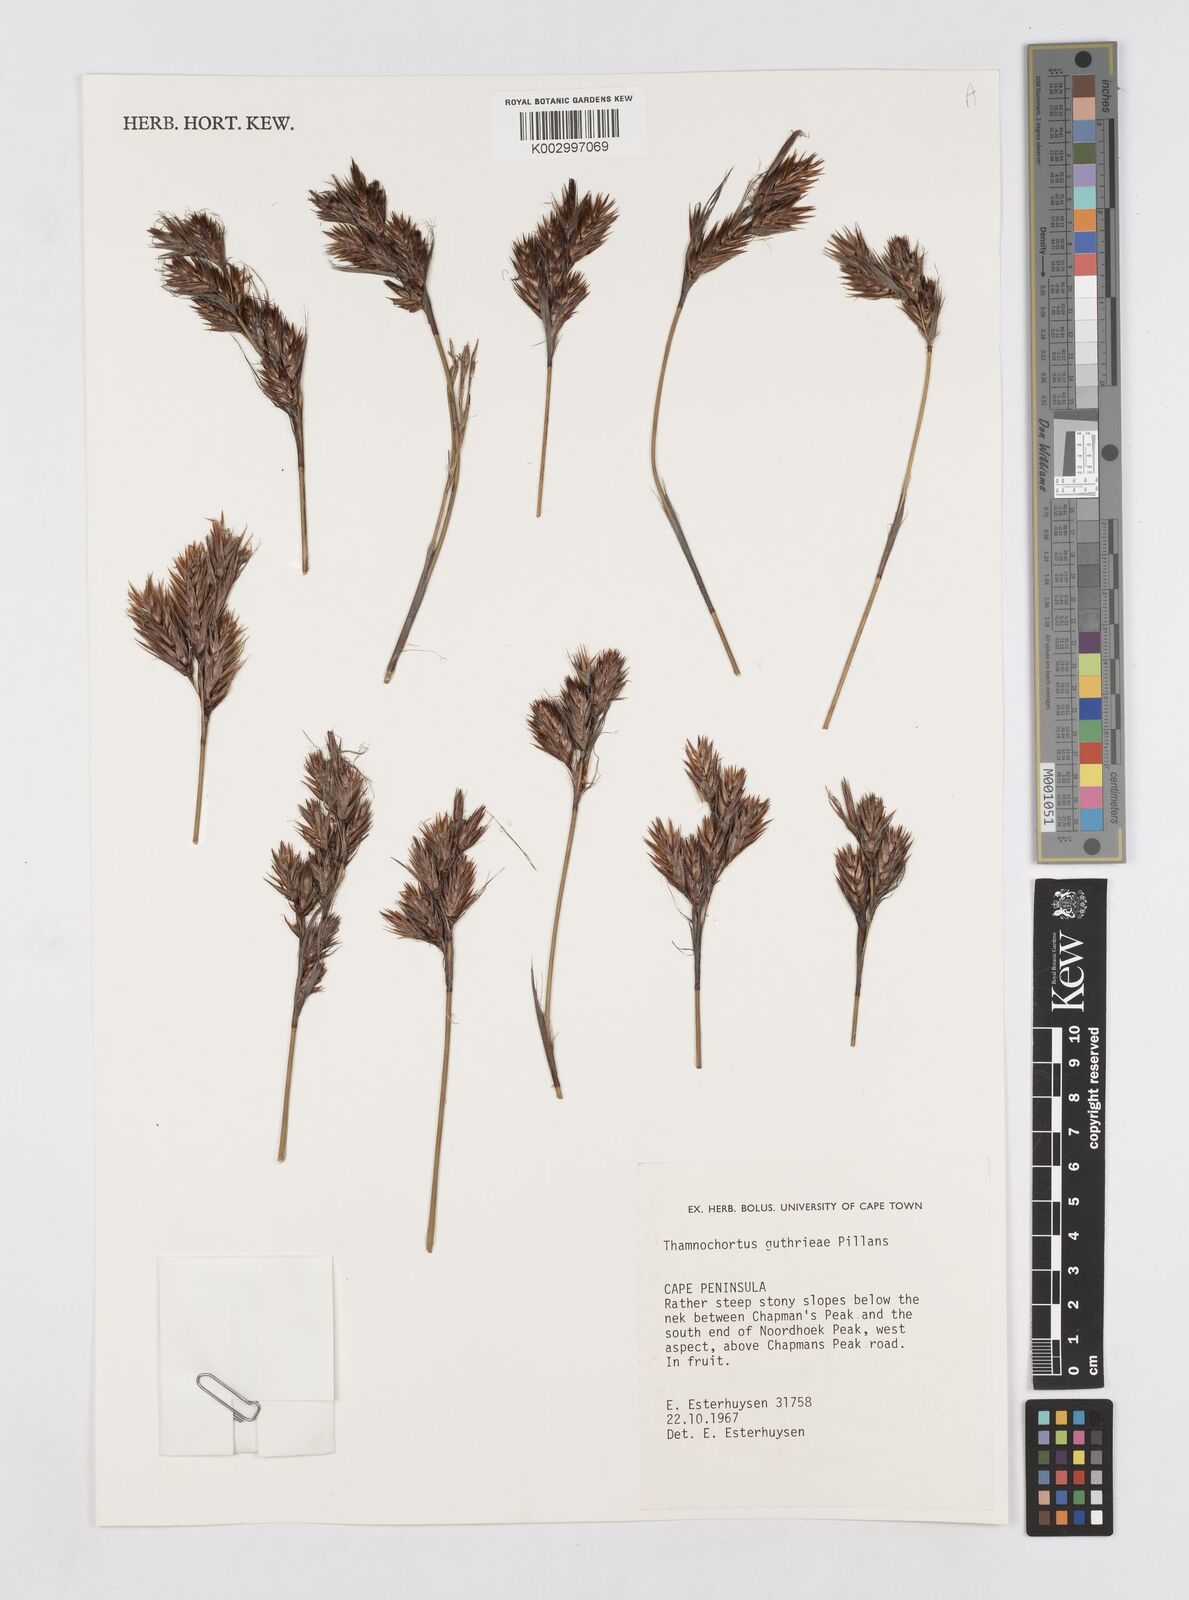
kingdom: Plantae
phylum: Tracheophyta
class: Liliopsida
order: Poales
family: Restionaceae
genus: Thamnochortus
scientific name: Thamnochortus guthrieae
